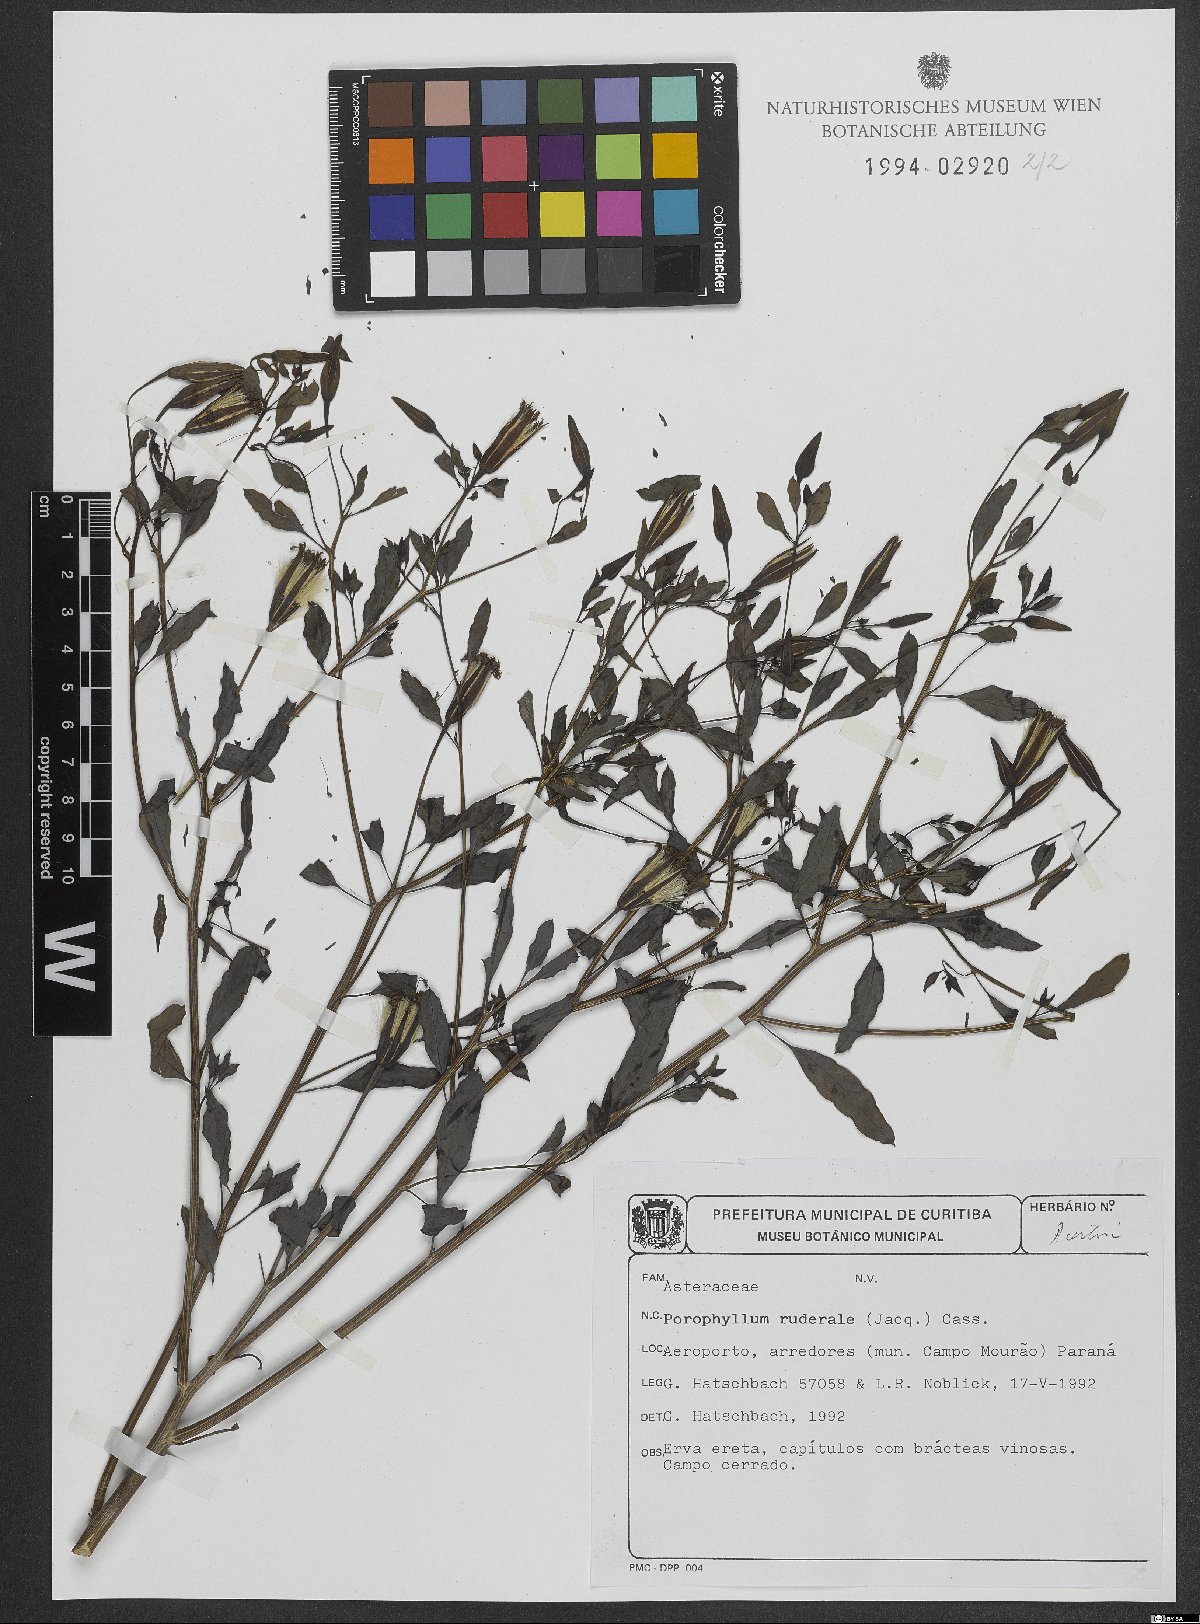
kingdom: Plantae
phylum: Tracheophyta
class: Magnoliopsida
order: Asterales
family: Asteraceae
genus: Porophyllum
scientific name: Porophyllum ruderale
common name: Yerba porosa
